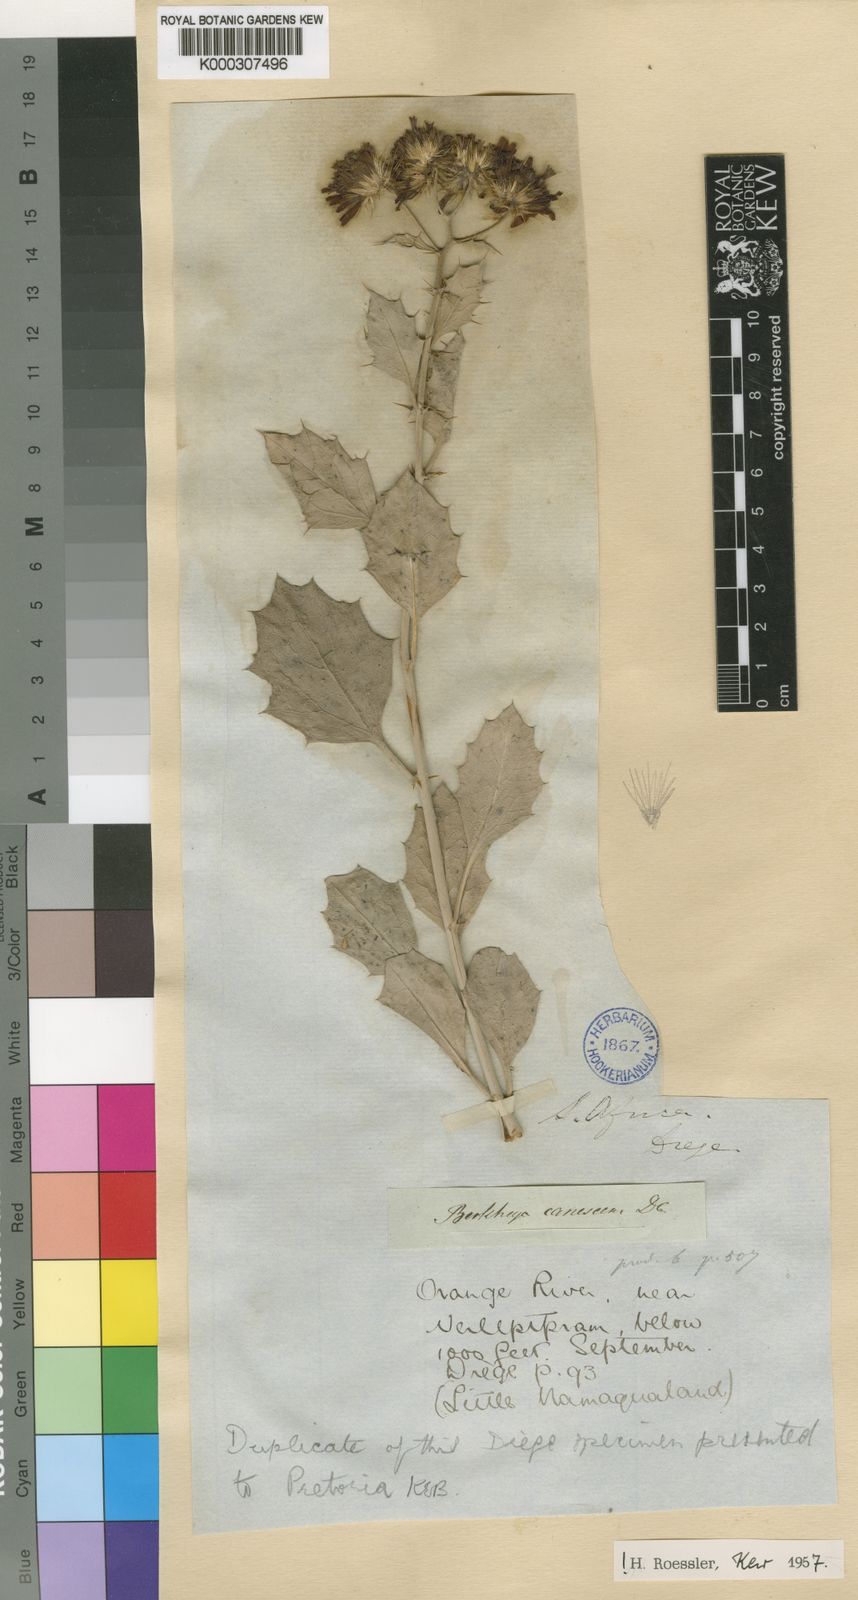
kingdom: Plantae
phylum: Tracheophyta
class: Magnoliopsida
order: Asterales
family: Asteraceae
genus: Berkheya
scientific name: Berkheya canescens
